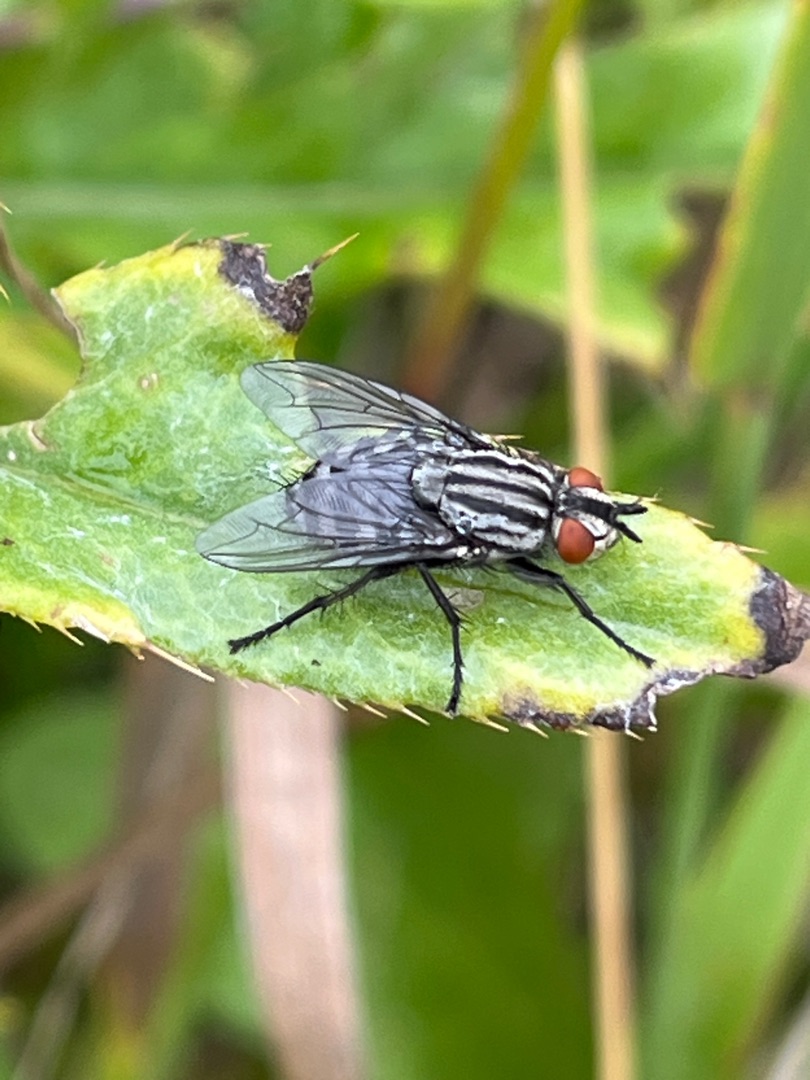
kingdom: Animalia
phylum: Arthropoda
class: Insecta
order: Diptera
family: Sarcophagidae
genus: Sarcophaga
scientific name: Sarcophaga
